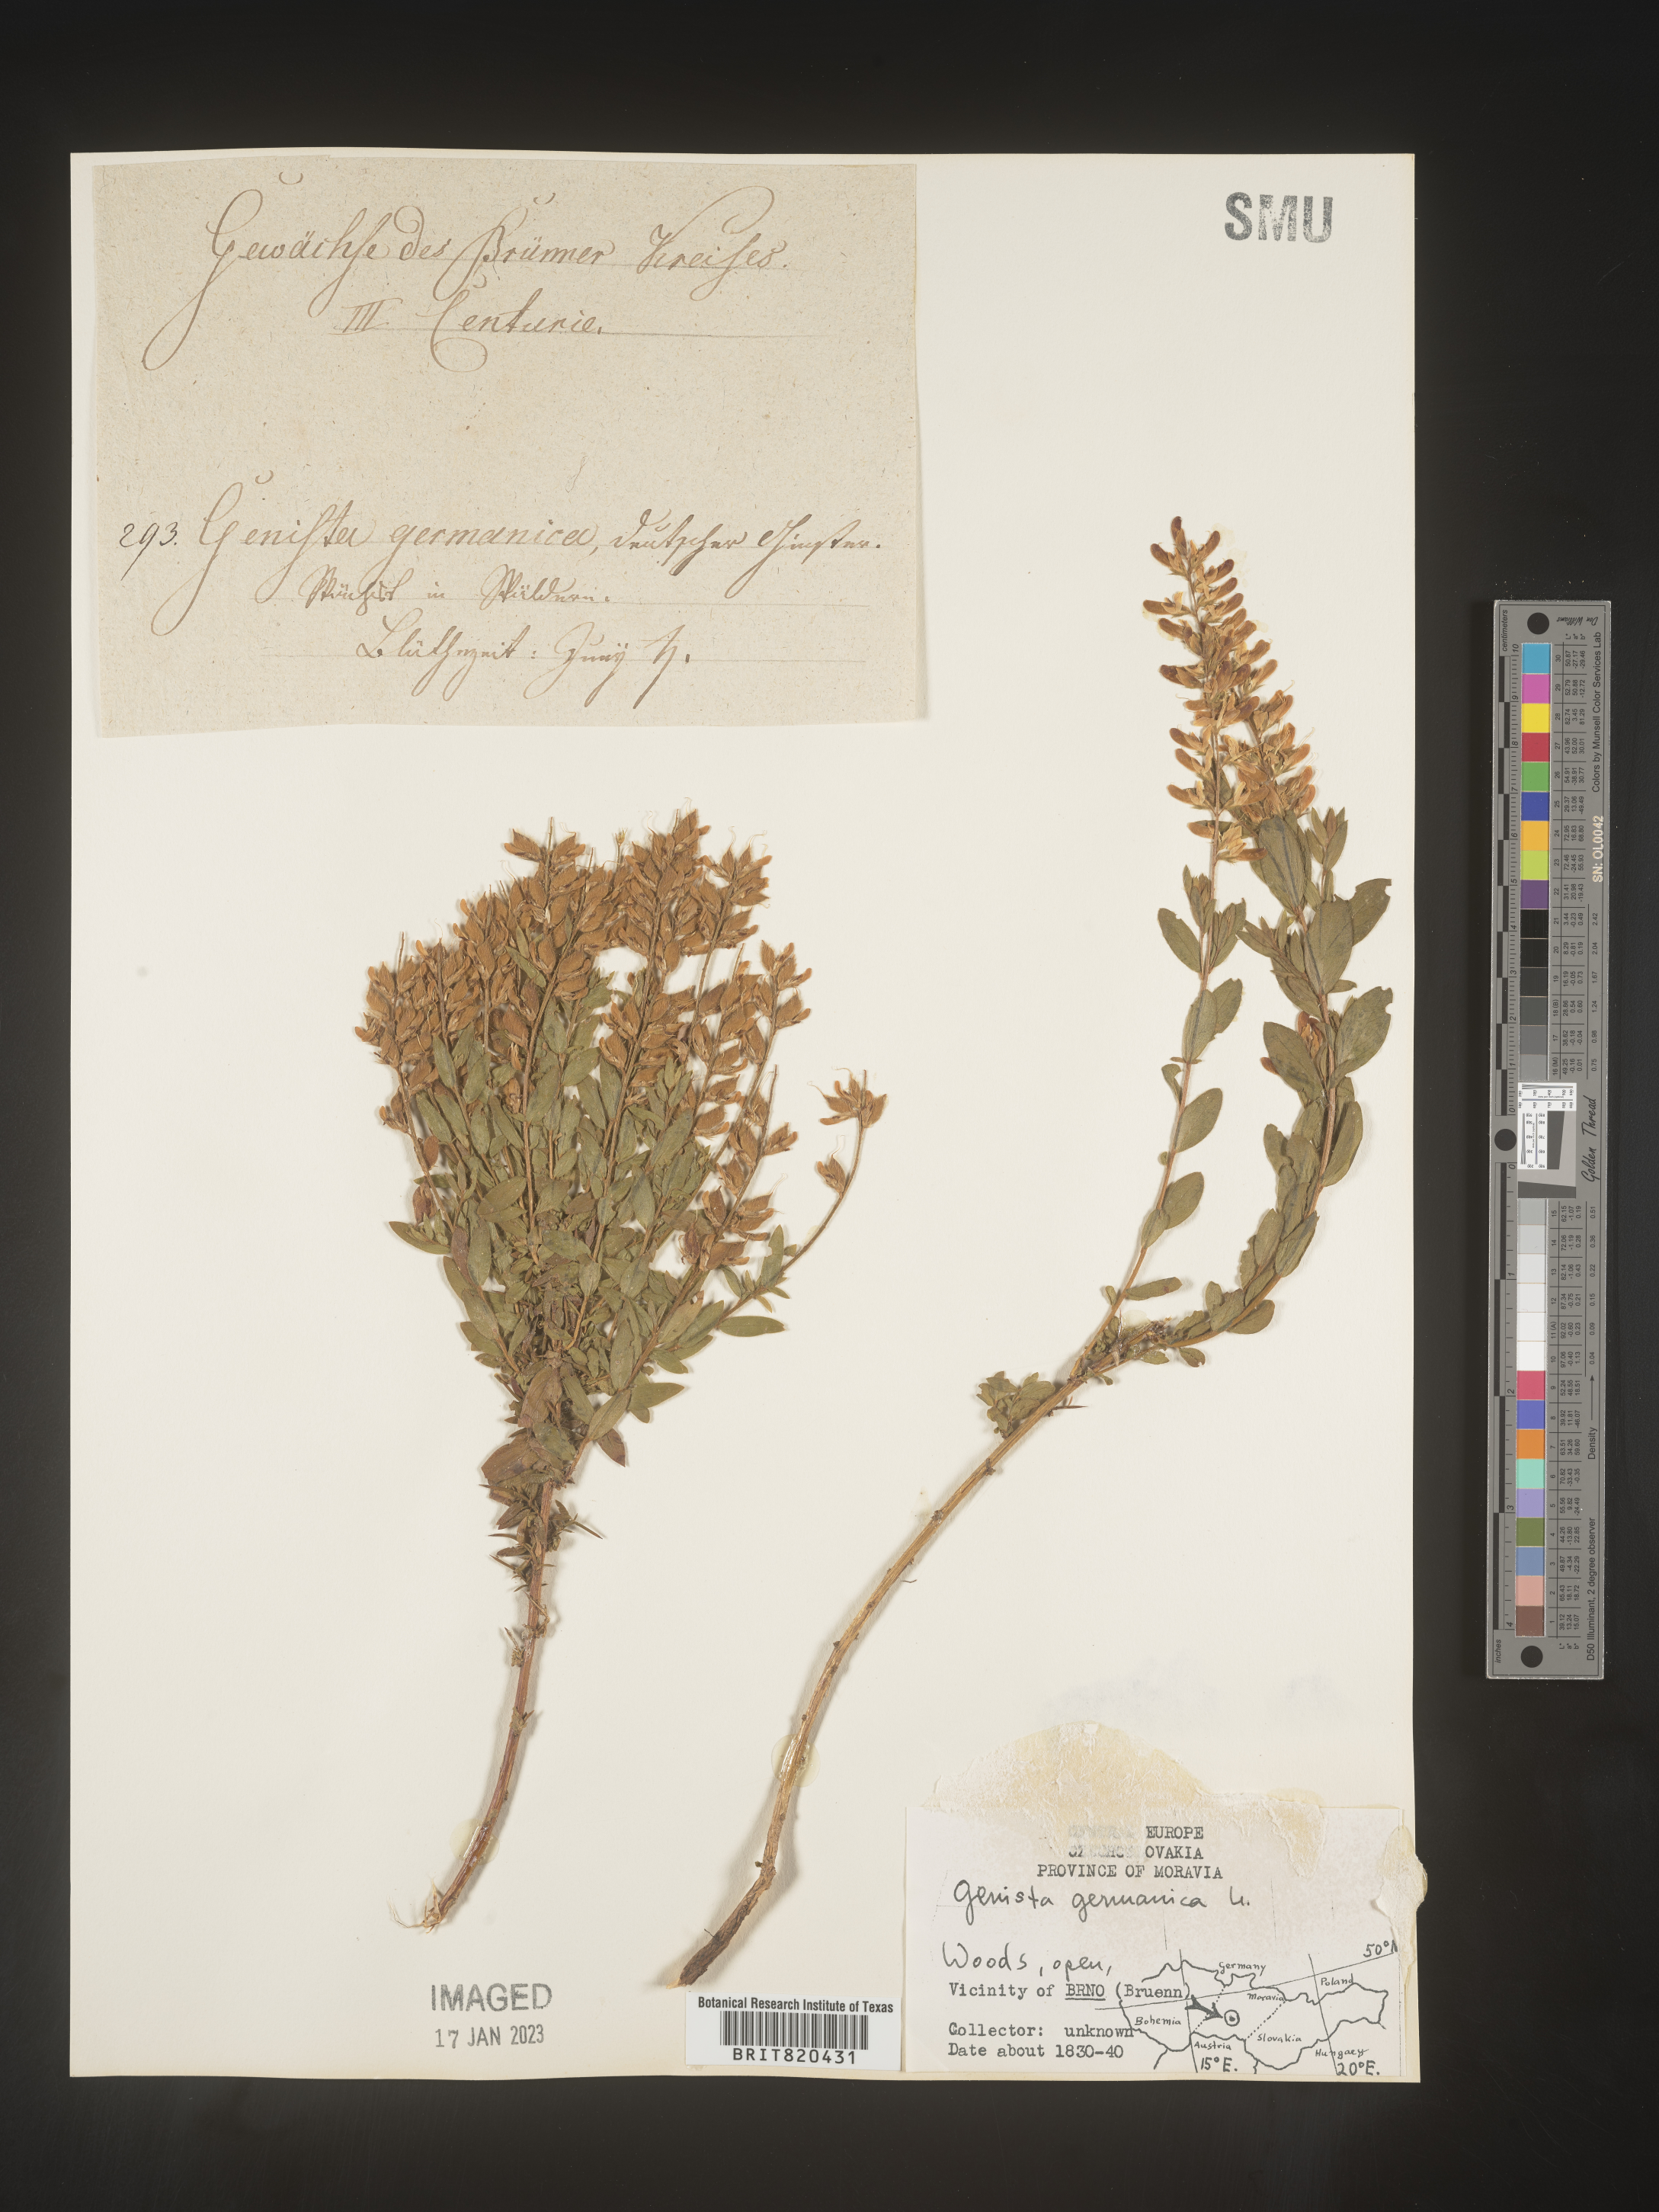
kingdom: Plantae
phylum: Tracheophyta
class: Magnoliopsida
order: Fabales
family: Fabaceae
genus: Genista
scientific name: Genista
